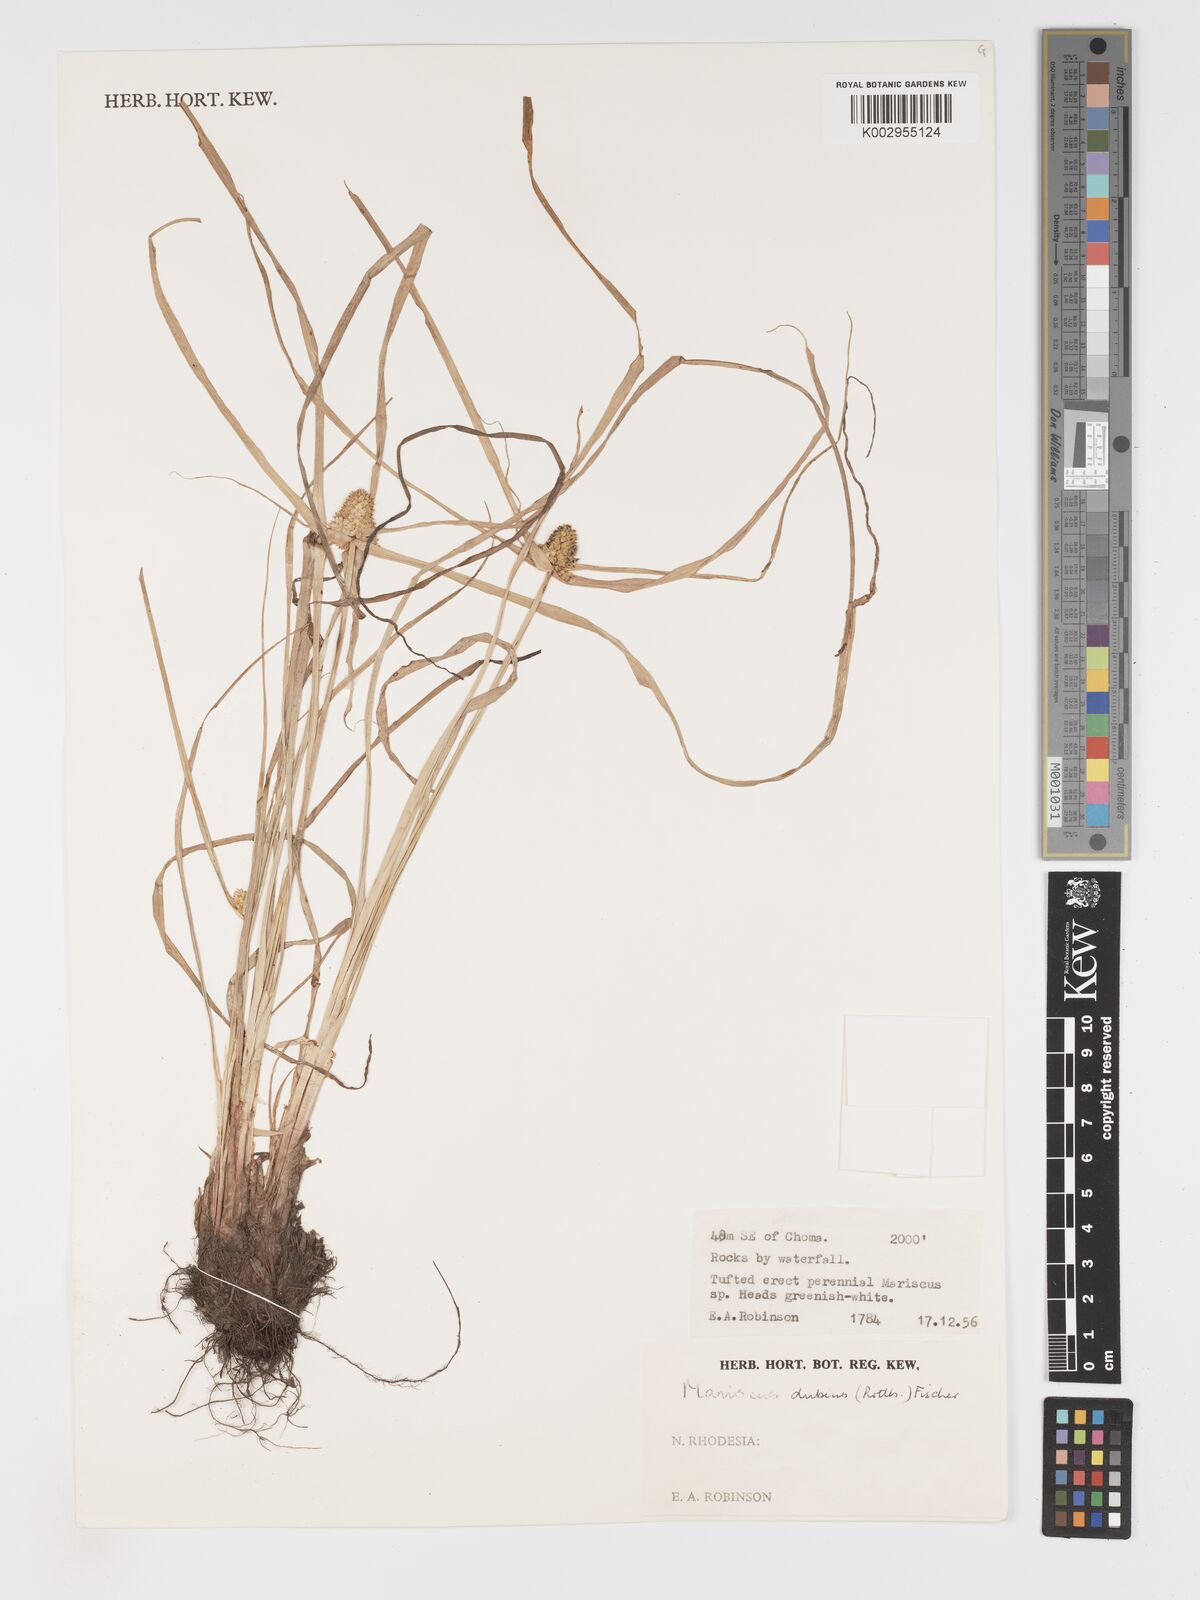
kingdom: Plantae
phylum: Tracheophyta
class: Liliopsida
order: Poales
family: Cyperaceae
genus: Cyperus
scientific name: Cyperus dubius
